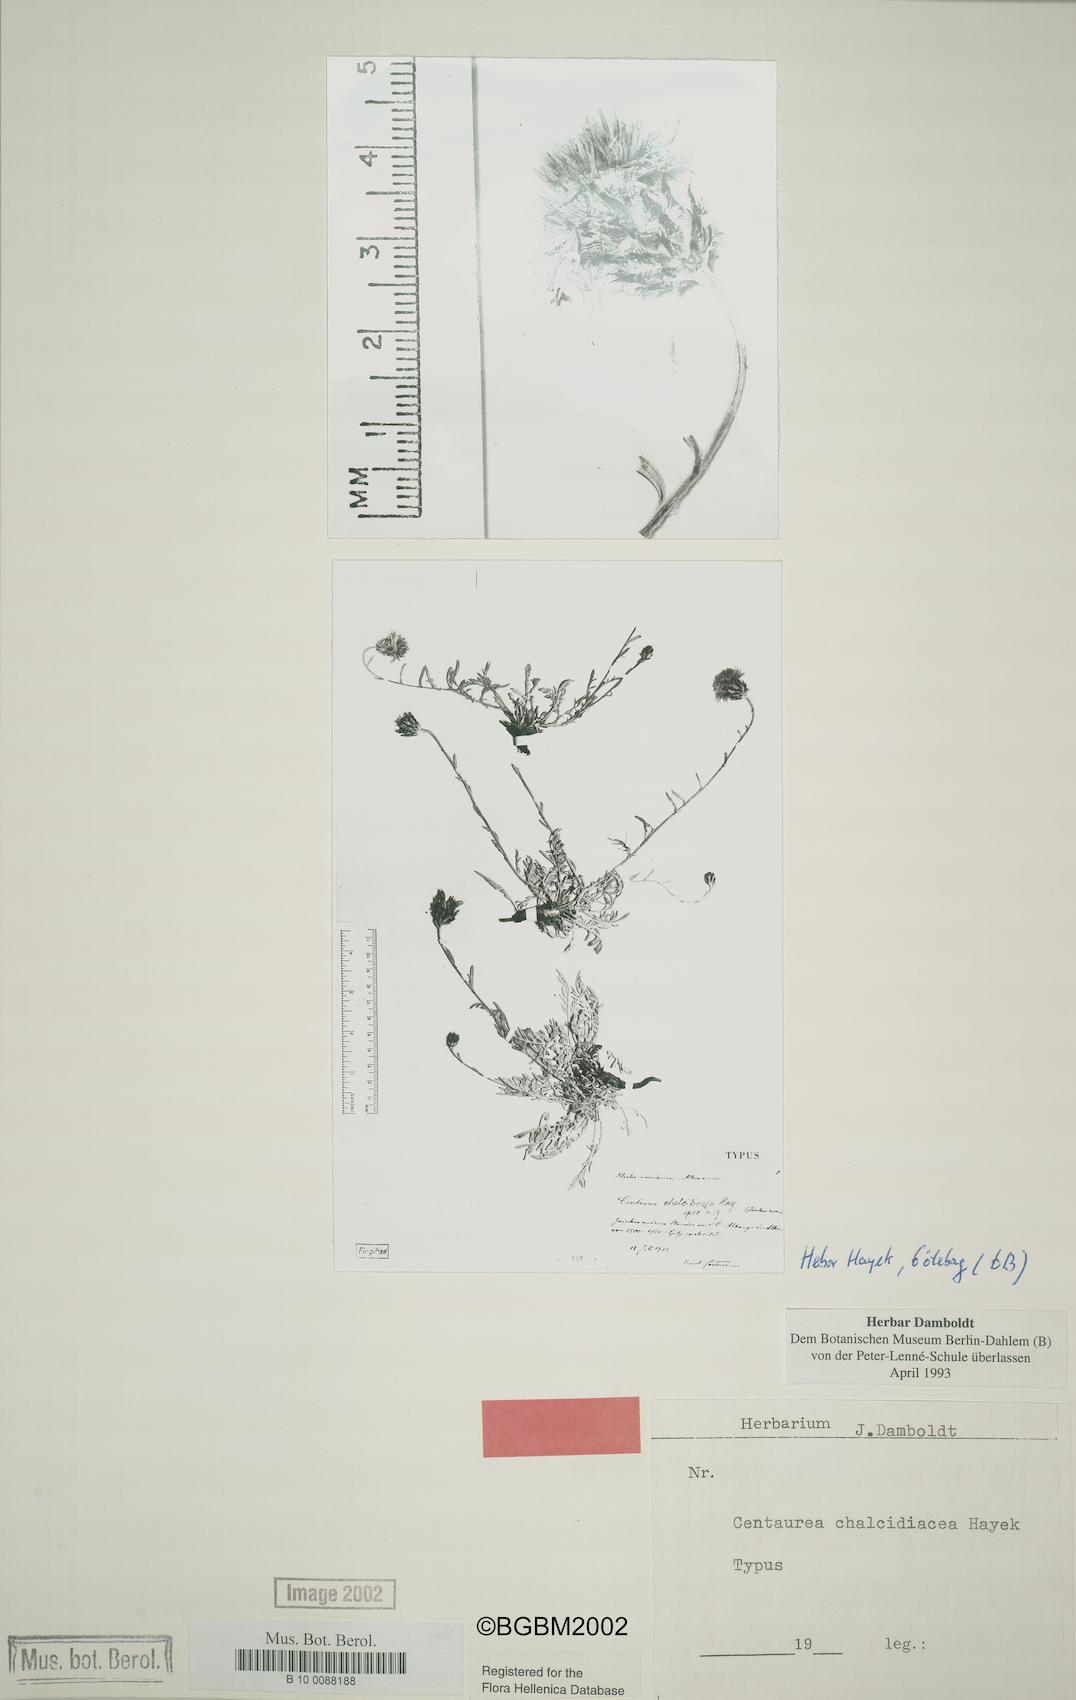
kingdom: Plantae
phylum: Tracheophyta
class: Magnoliopsida
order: Asterales
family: Asteraceae
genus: Centaurea
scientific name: Centaurea chalcidicea
